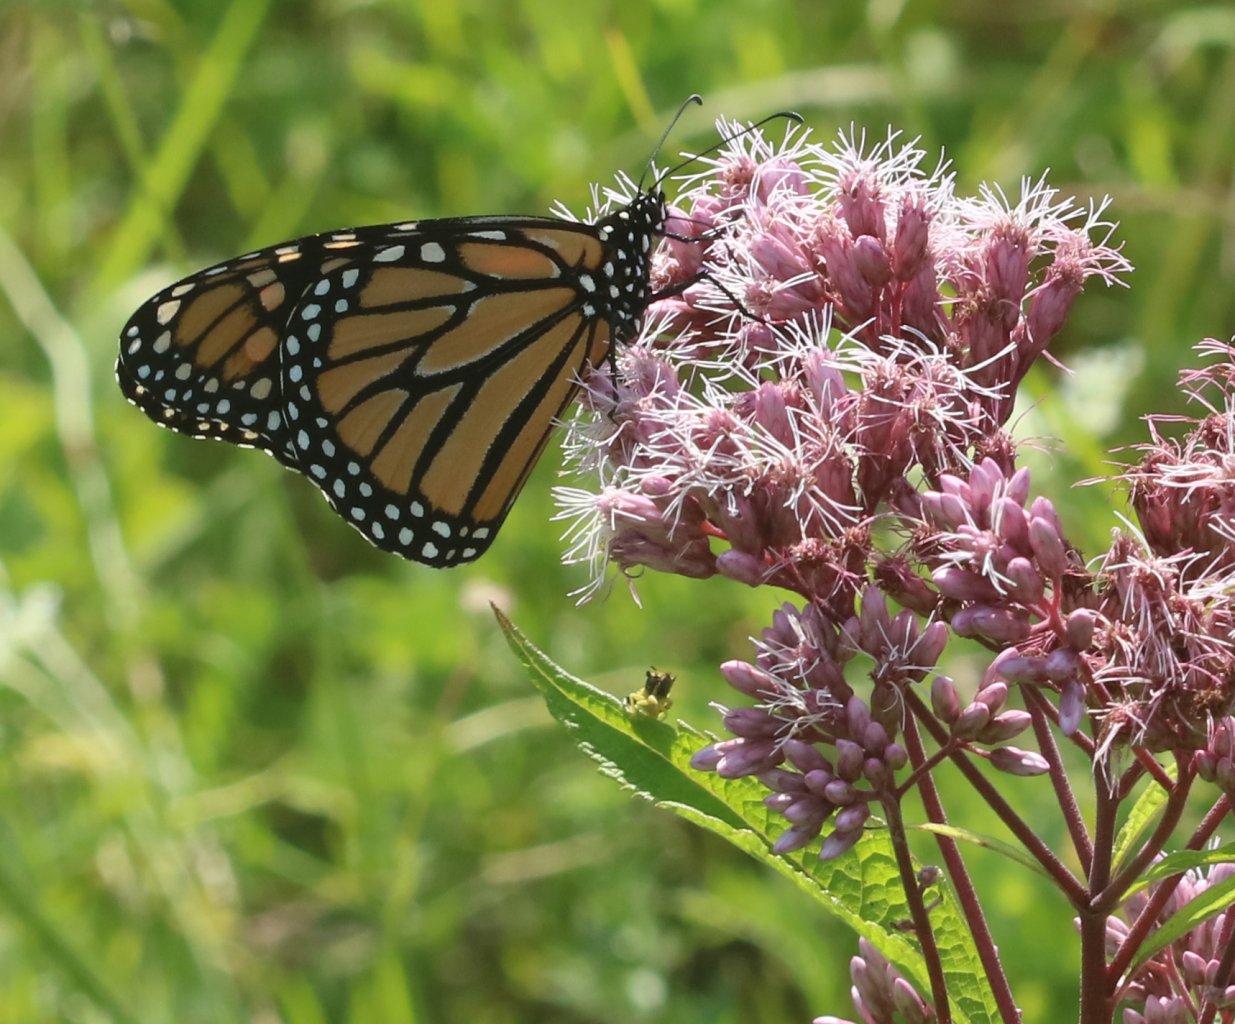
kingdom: Animalia
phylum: Arthropoda
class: Insecta
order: Lepidoptera
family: Nymphalidae
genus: Danaus
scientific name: Danaus plexippus
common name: Monarch
